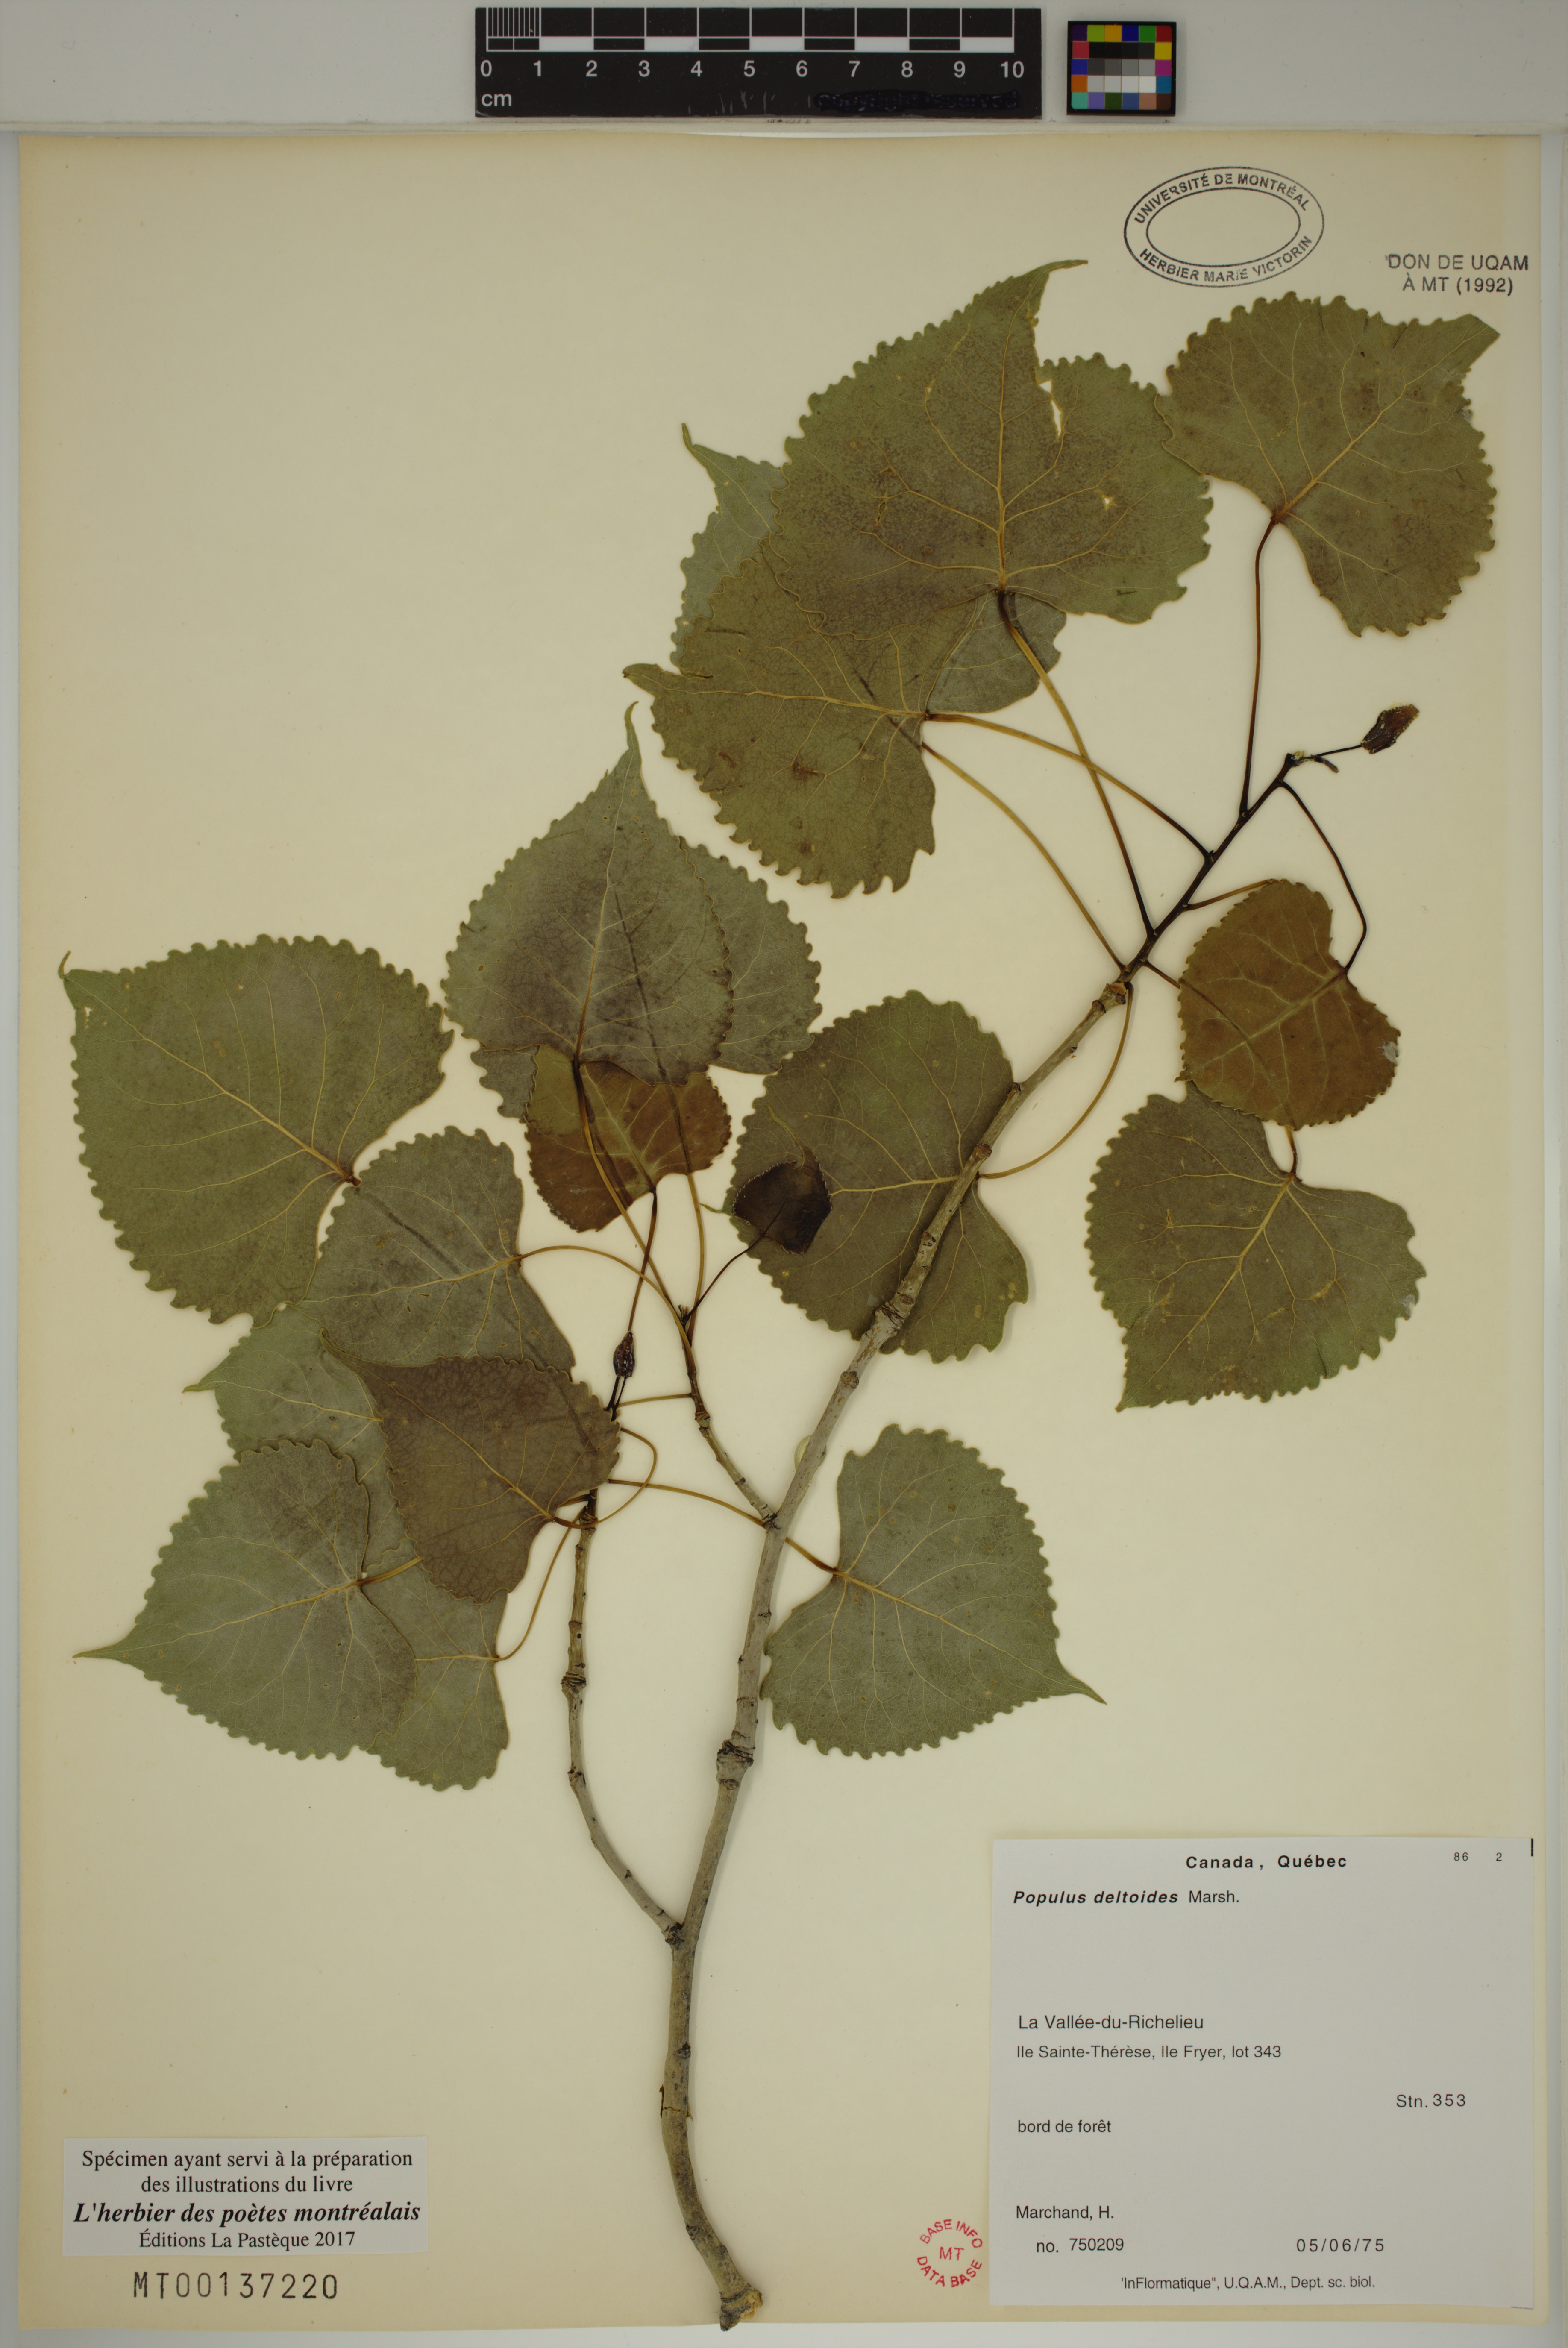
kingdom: Plantae
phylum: Tracheophyta
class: Magnoliopsida
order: Malpighiales
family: Salicaceae
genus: Populus
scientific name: Populus deltoides
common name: Eastern cottonwood
